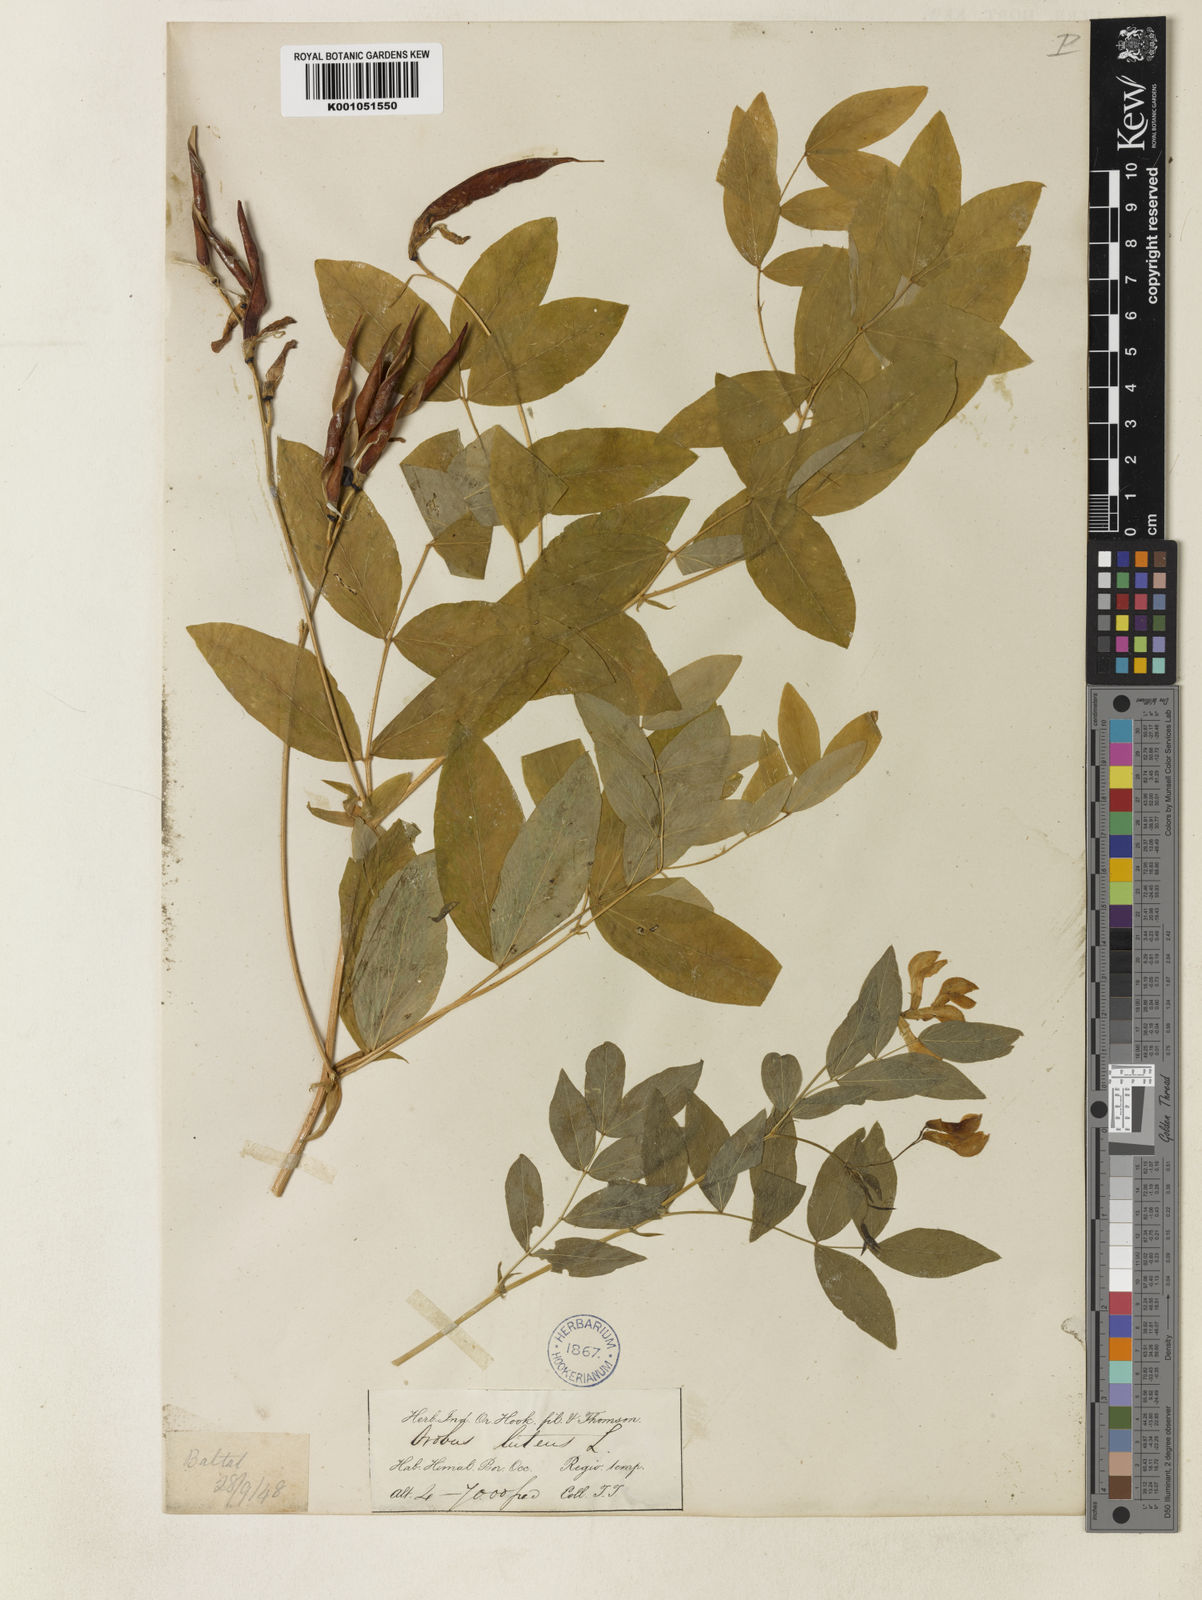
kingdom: Plantae
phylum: Tracheophyta
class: Magnoliopsida
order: Fabales
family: Fabaceae
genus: Lathyrus
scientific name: Lathyrus
